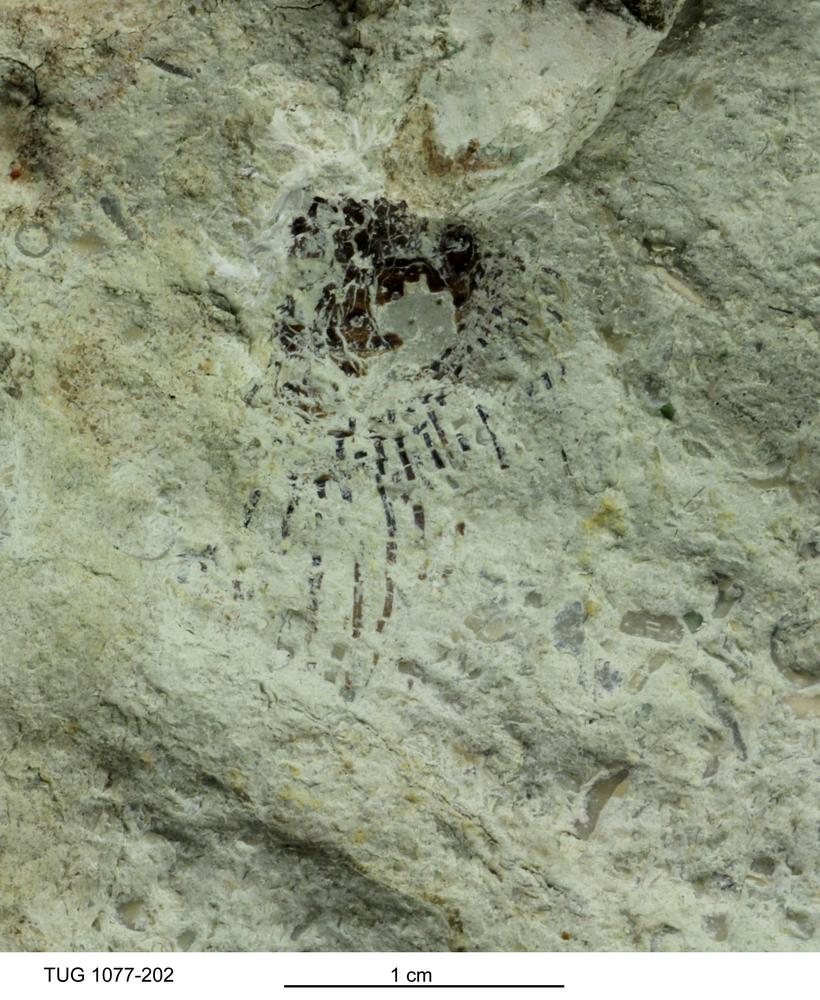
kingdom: Animalia
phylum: Brachiopoda
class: Lingulata
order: Siphonotretida
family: Siphonotretidae
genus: Siphonotreta
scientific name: Siphonotreta
